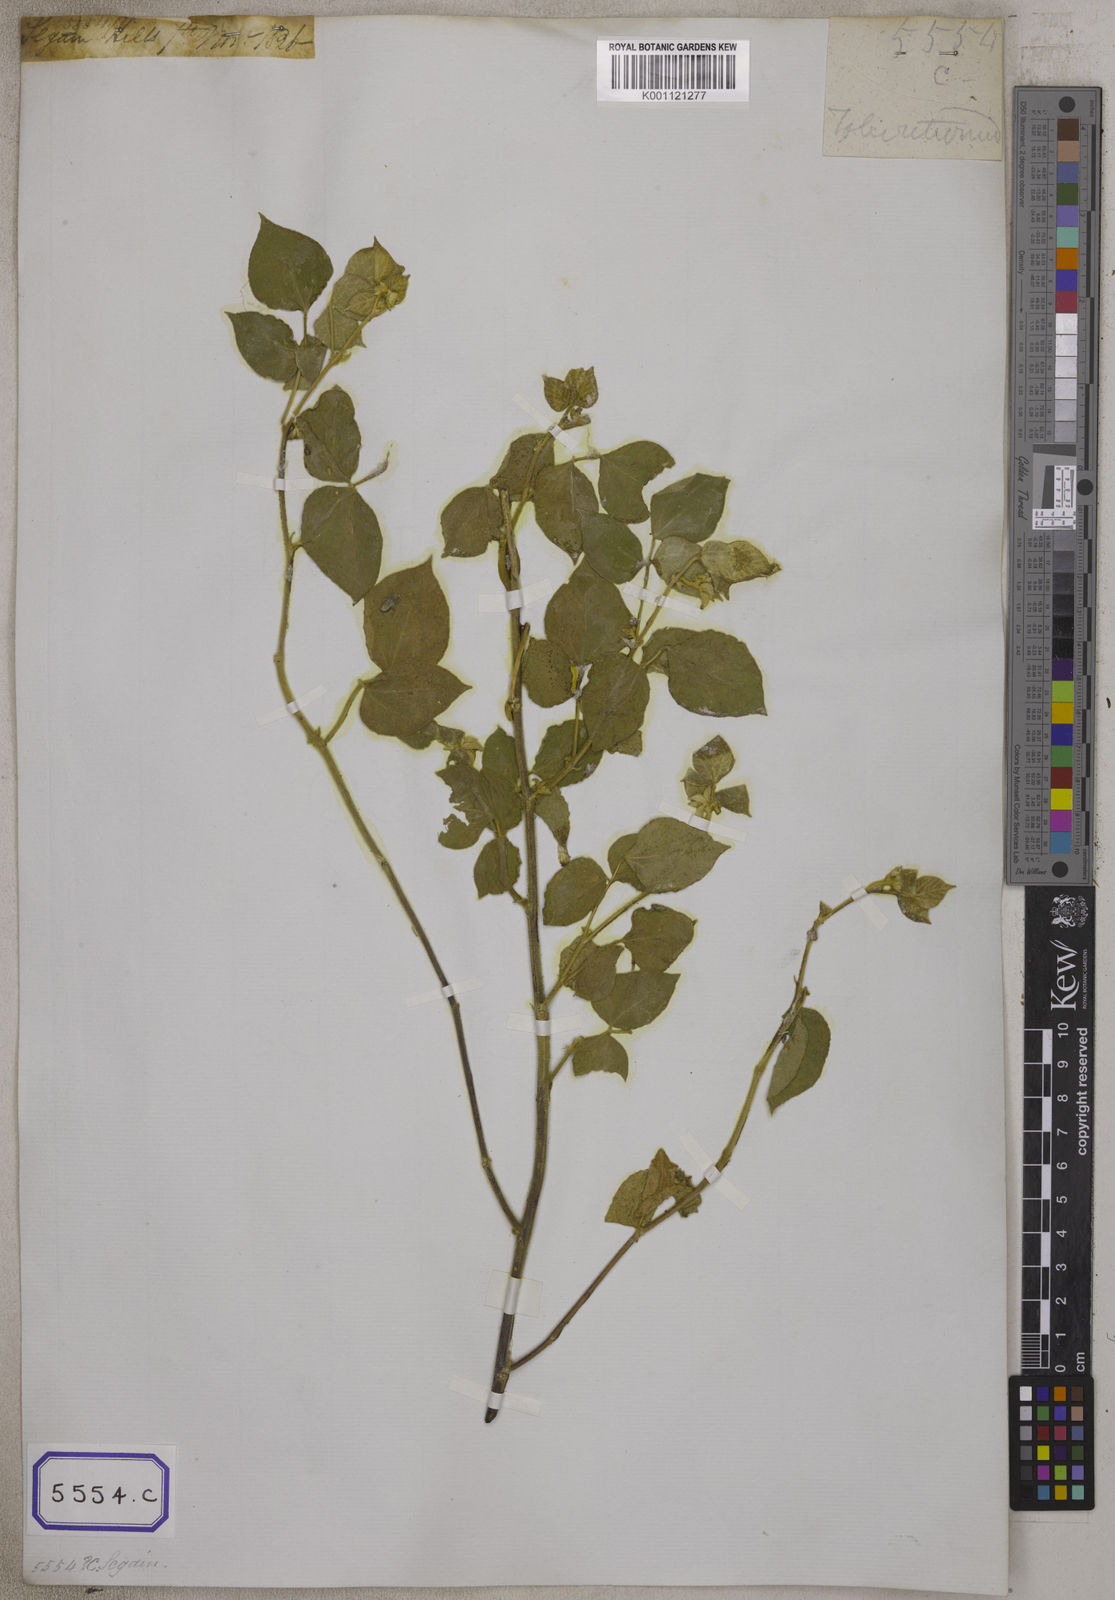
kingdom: Plantae
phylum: Tracheophyta
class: Magnoliopsida
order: Fabales
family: Fabaceae
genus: Rhynchosia
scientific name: Rhynchosia bracteata
